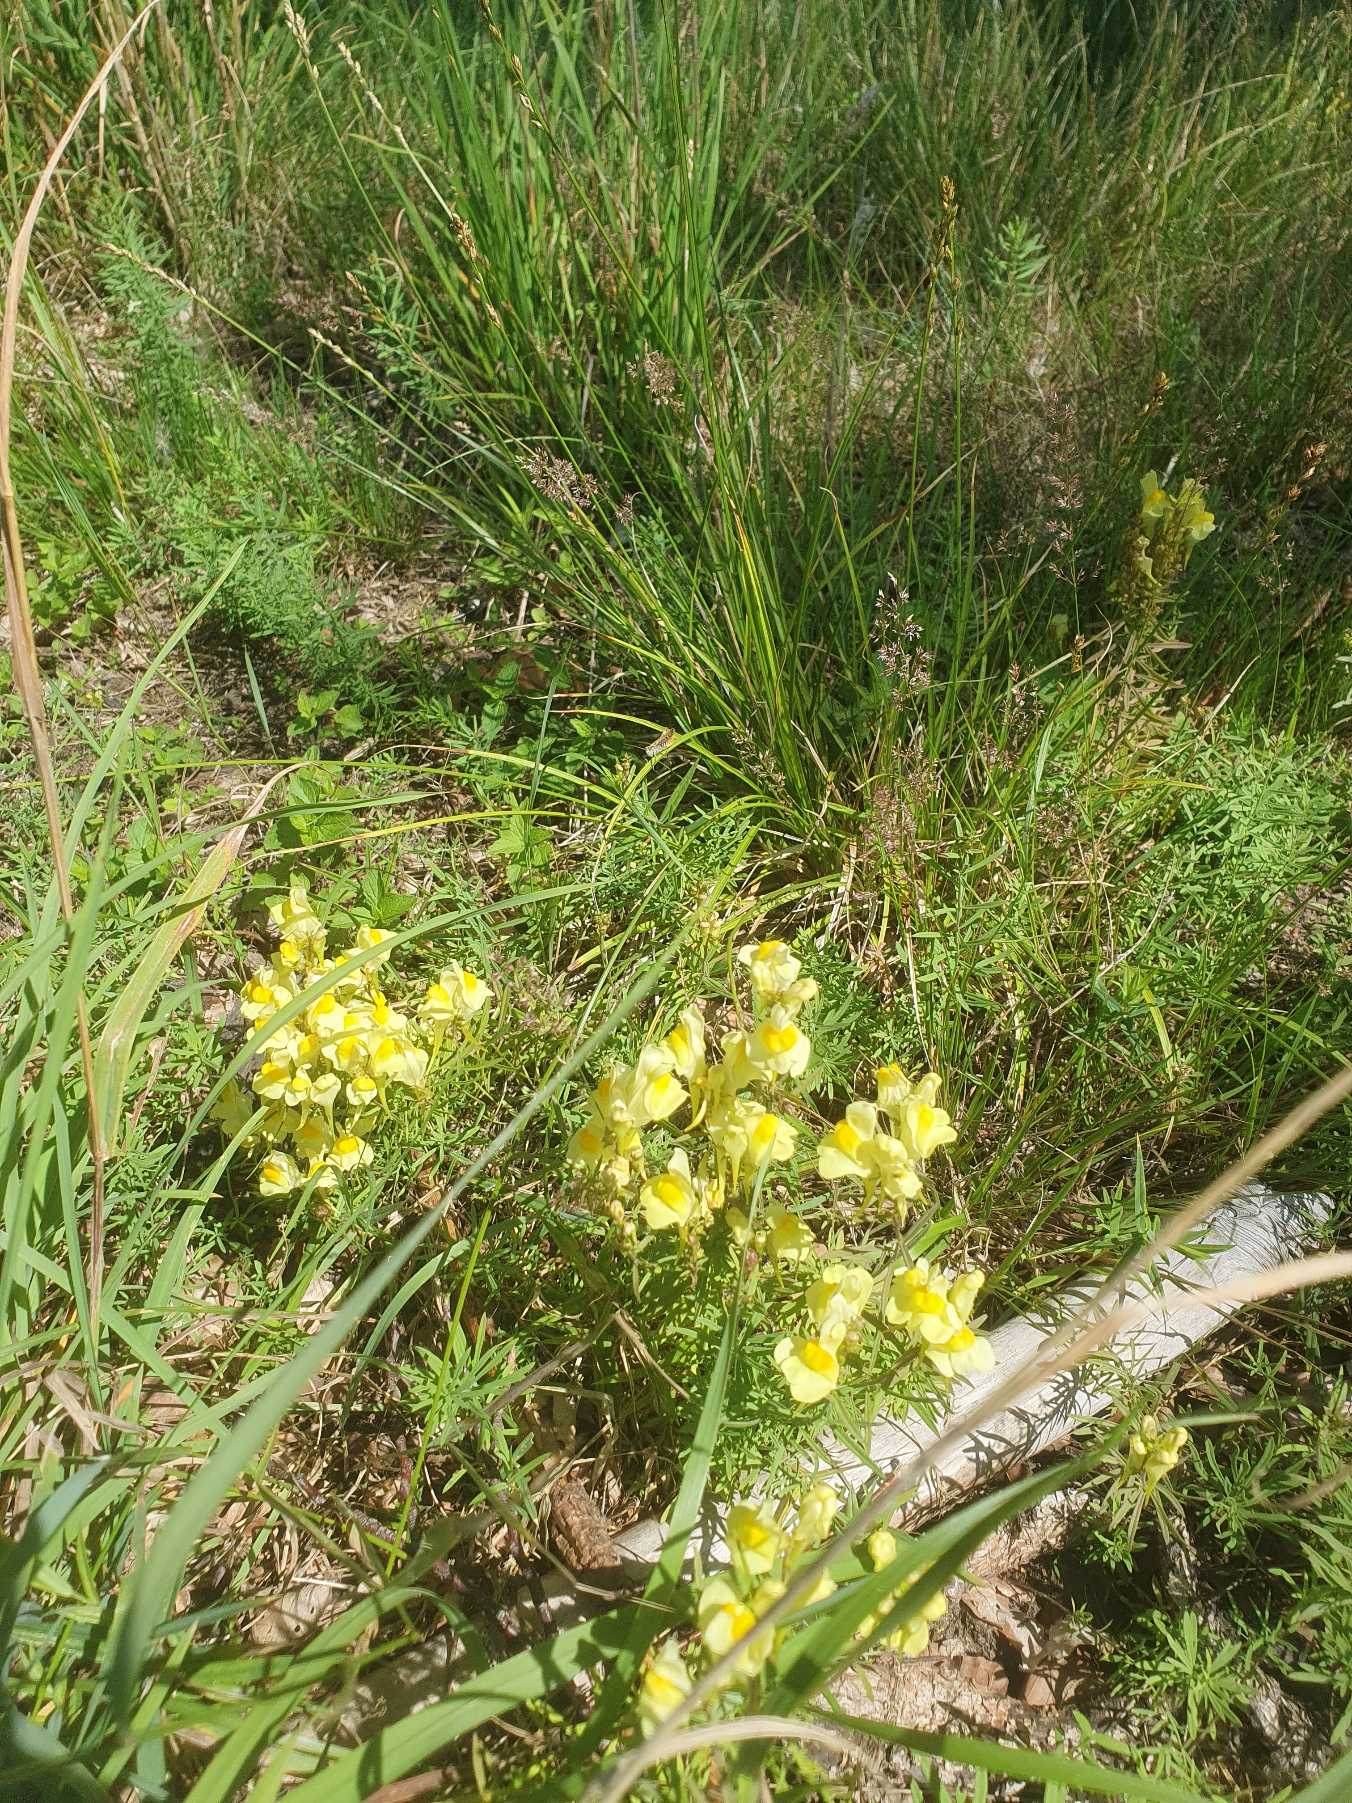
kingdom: Plantae
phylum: Tracheophyta
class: Magnoliopsida
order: Lamiales
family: Plantaginaceae
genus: Linaria
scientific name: Linaria vulgaris
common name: Almindelig torskemund
